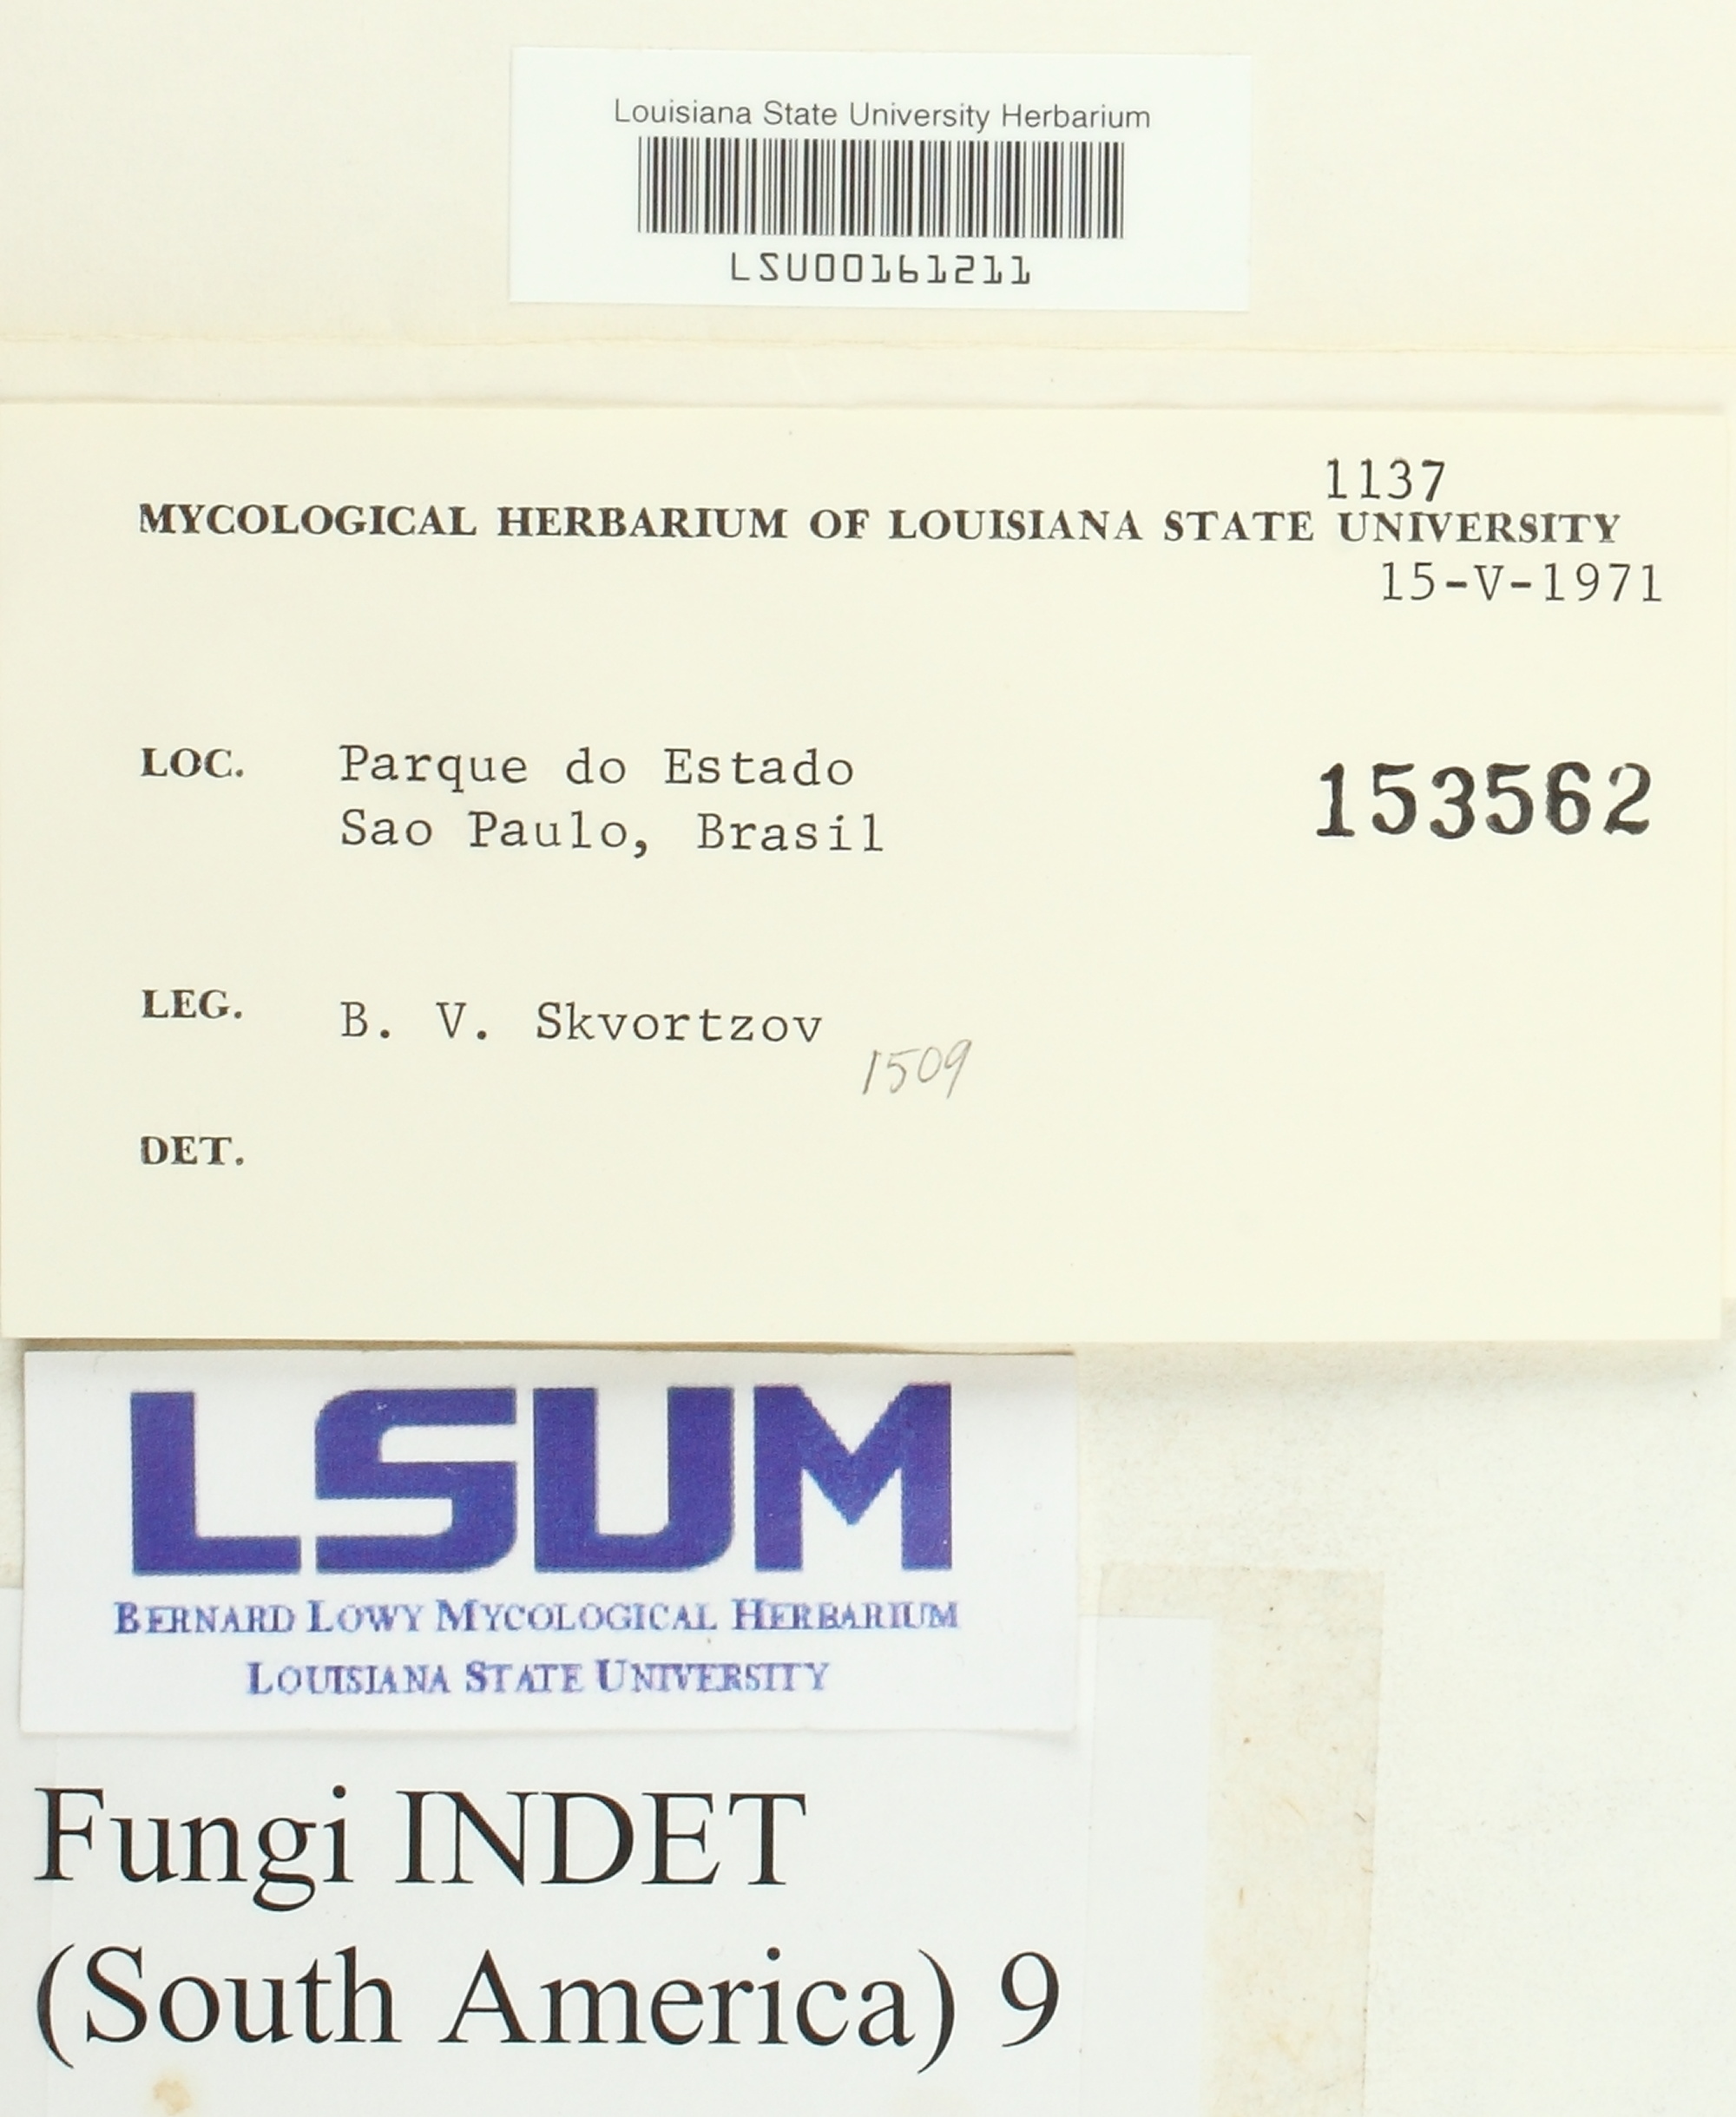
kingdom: Fungi
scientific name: Fungi
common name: Fungi
